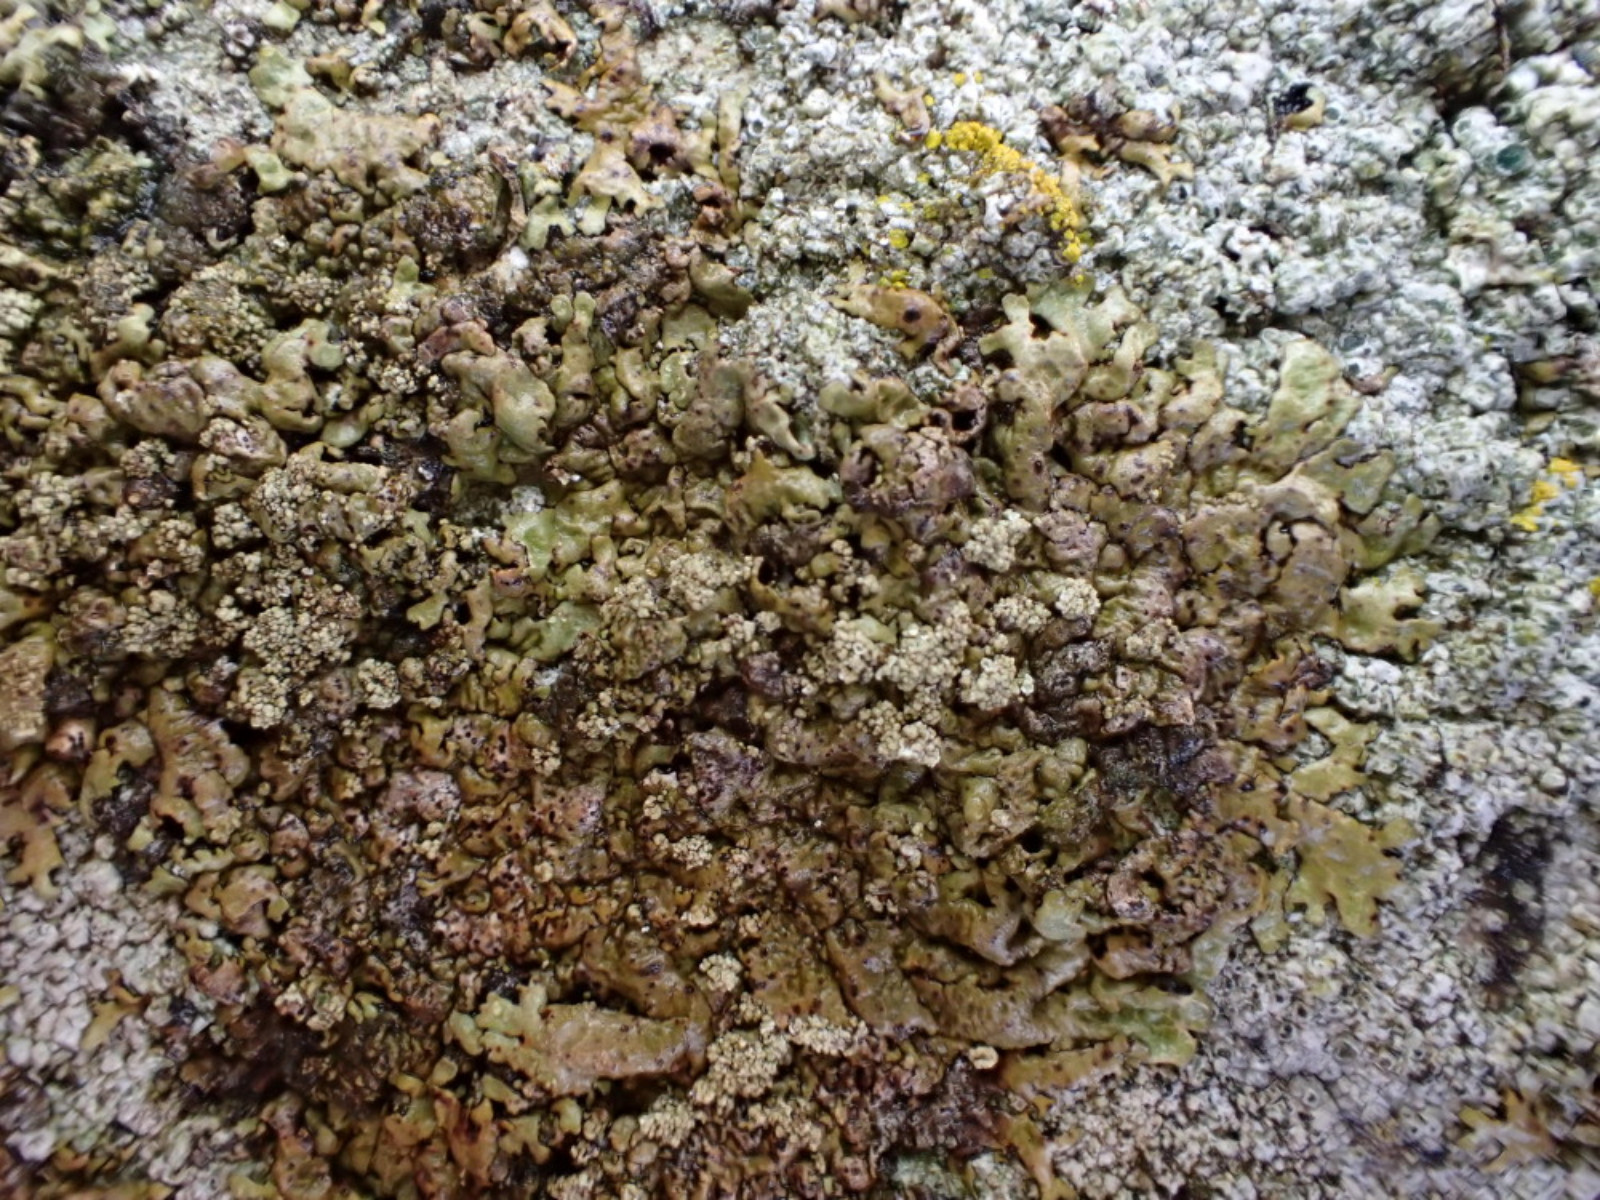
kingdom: Fungi
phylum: Ascomycota
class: Lecanoromycetes
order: Lecanorales
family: Parmeliaceae
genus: Xanthoparmelia
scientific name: Xanthoparmelia loxodes
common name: knudret skållav
